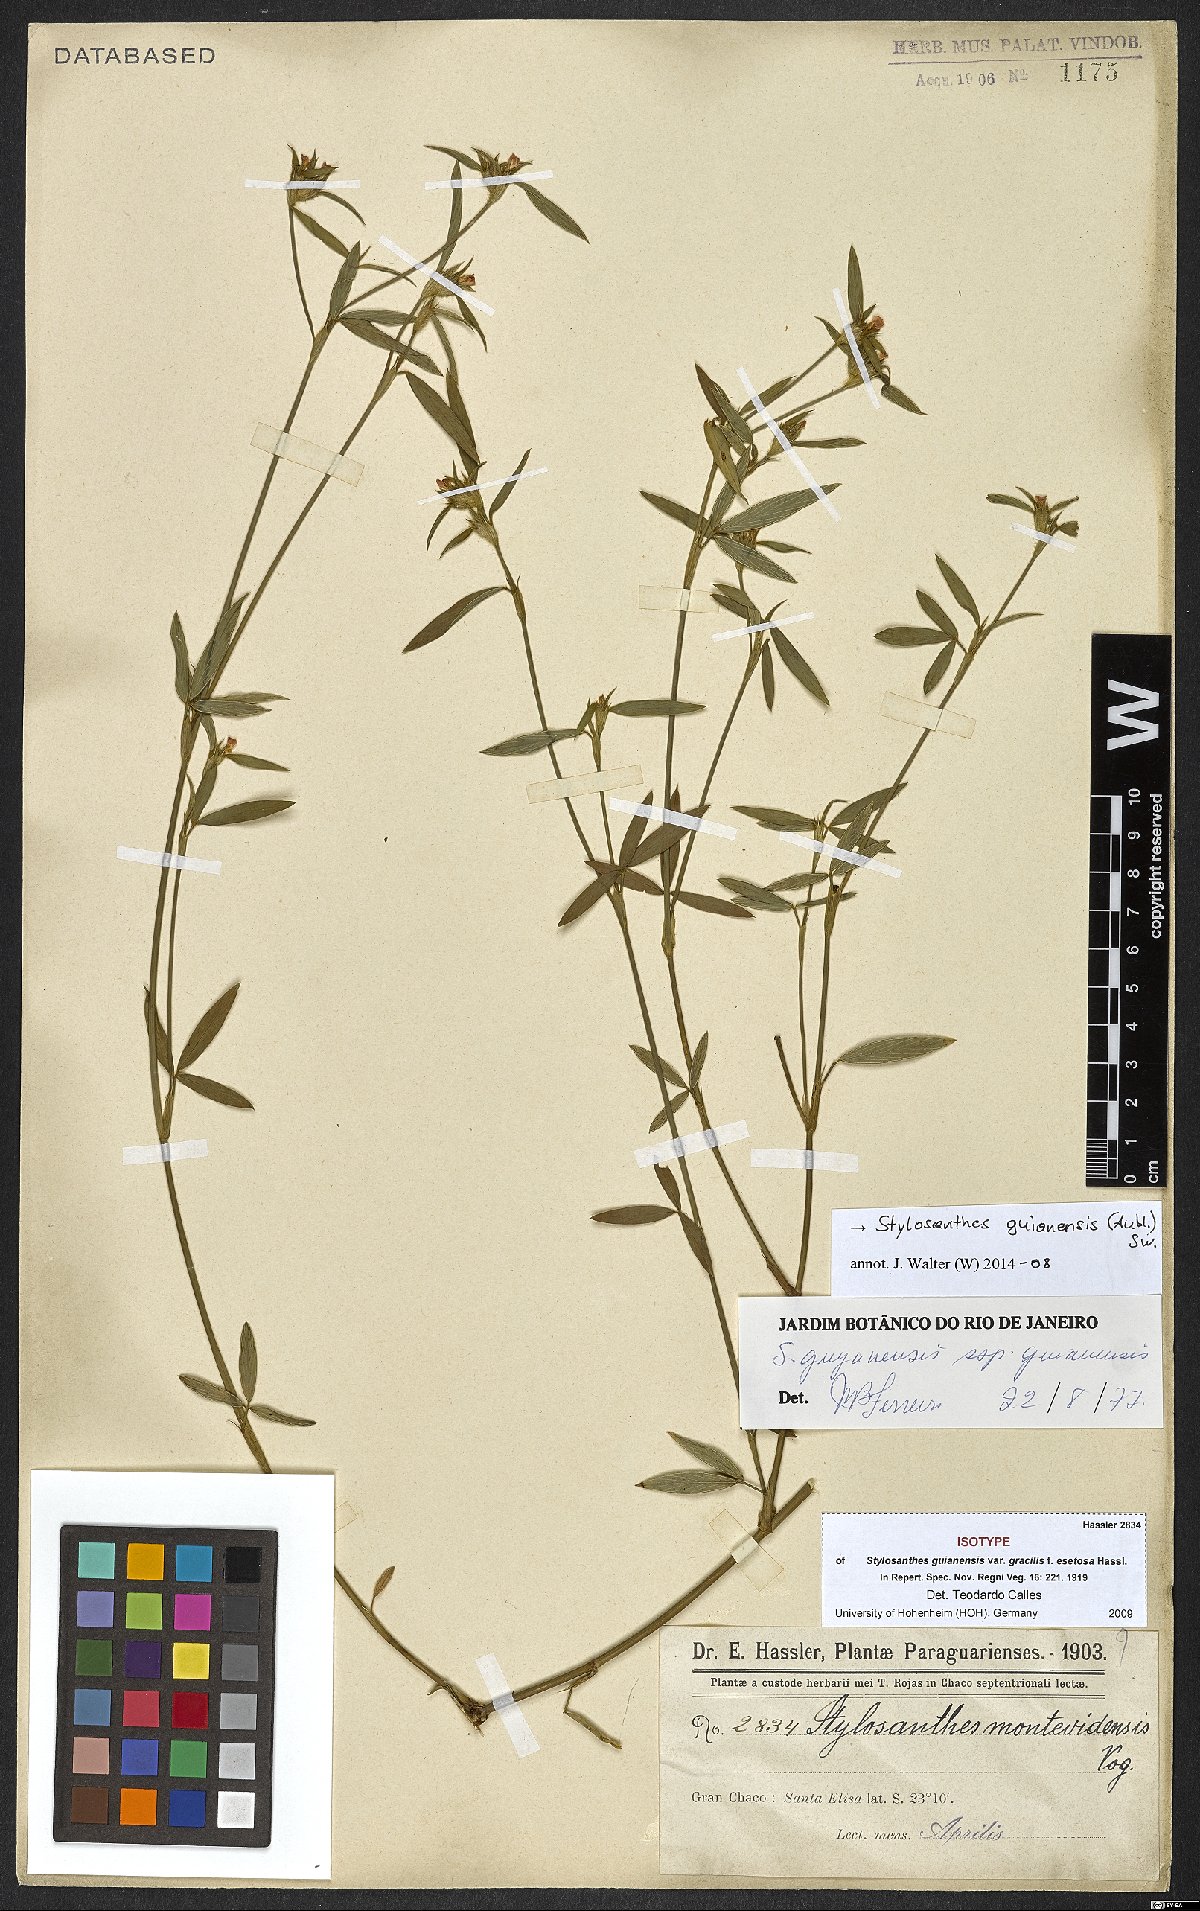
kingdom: Plantae
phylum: Tracheophyta
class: Magnoliopsida
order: Fabales
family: Fabaceae
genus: Stylosanthes
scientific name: Stylosanthes guianensis
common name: Pencil flower
